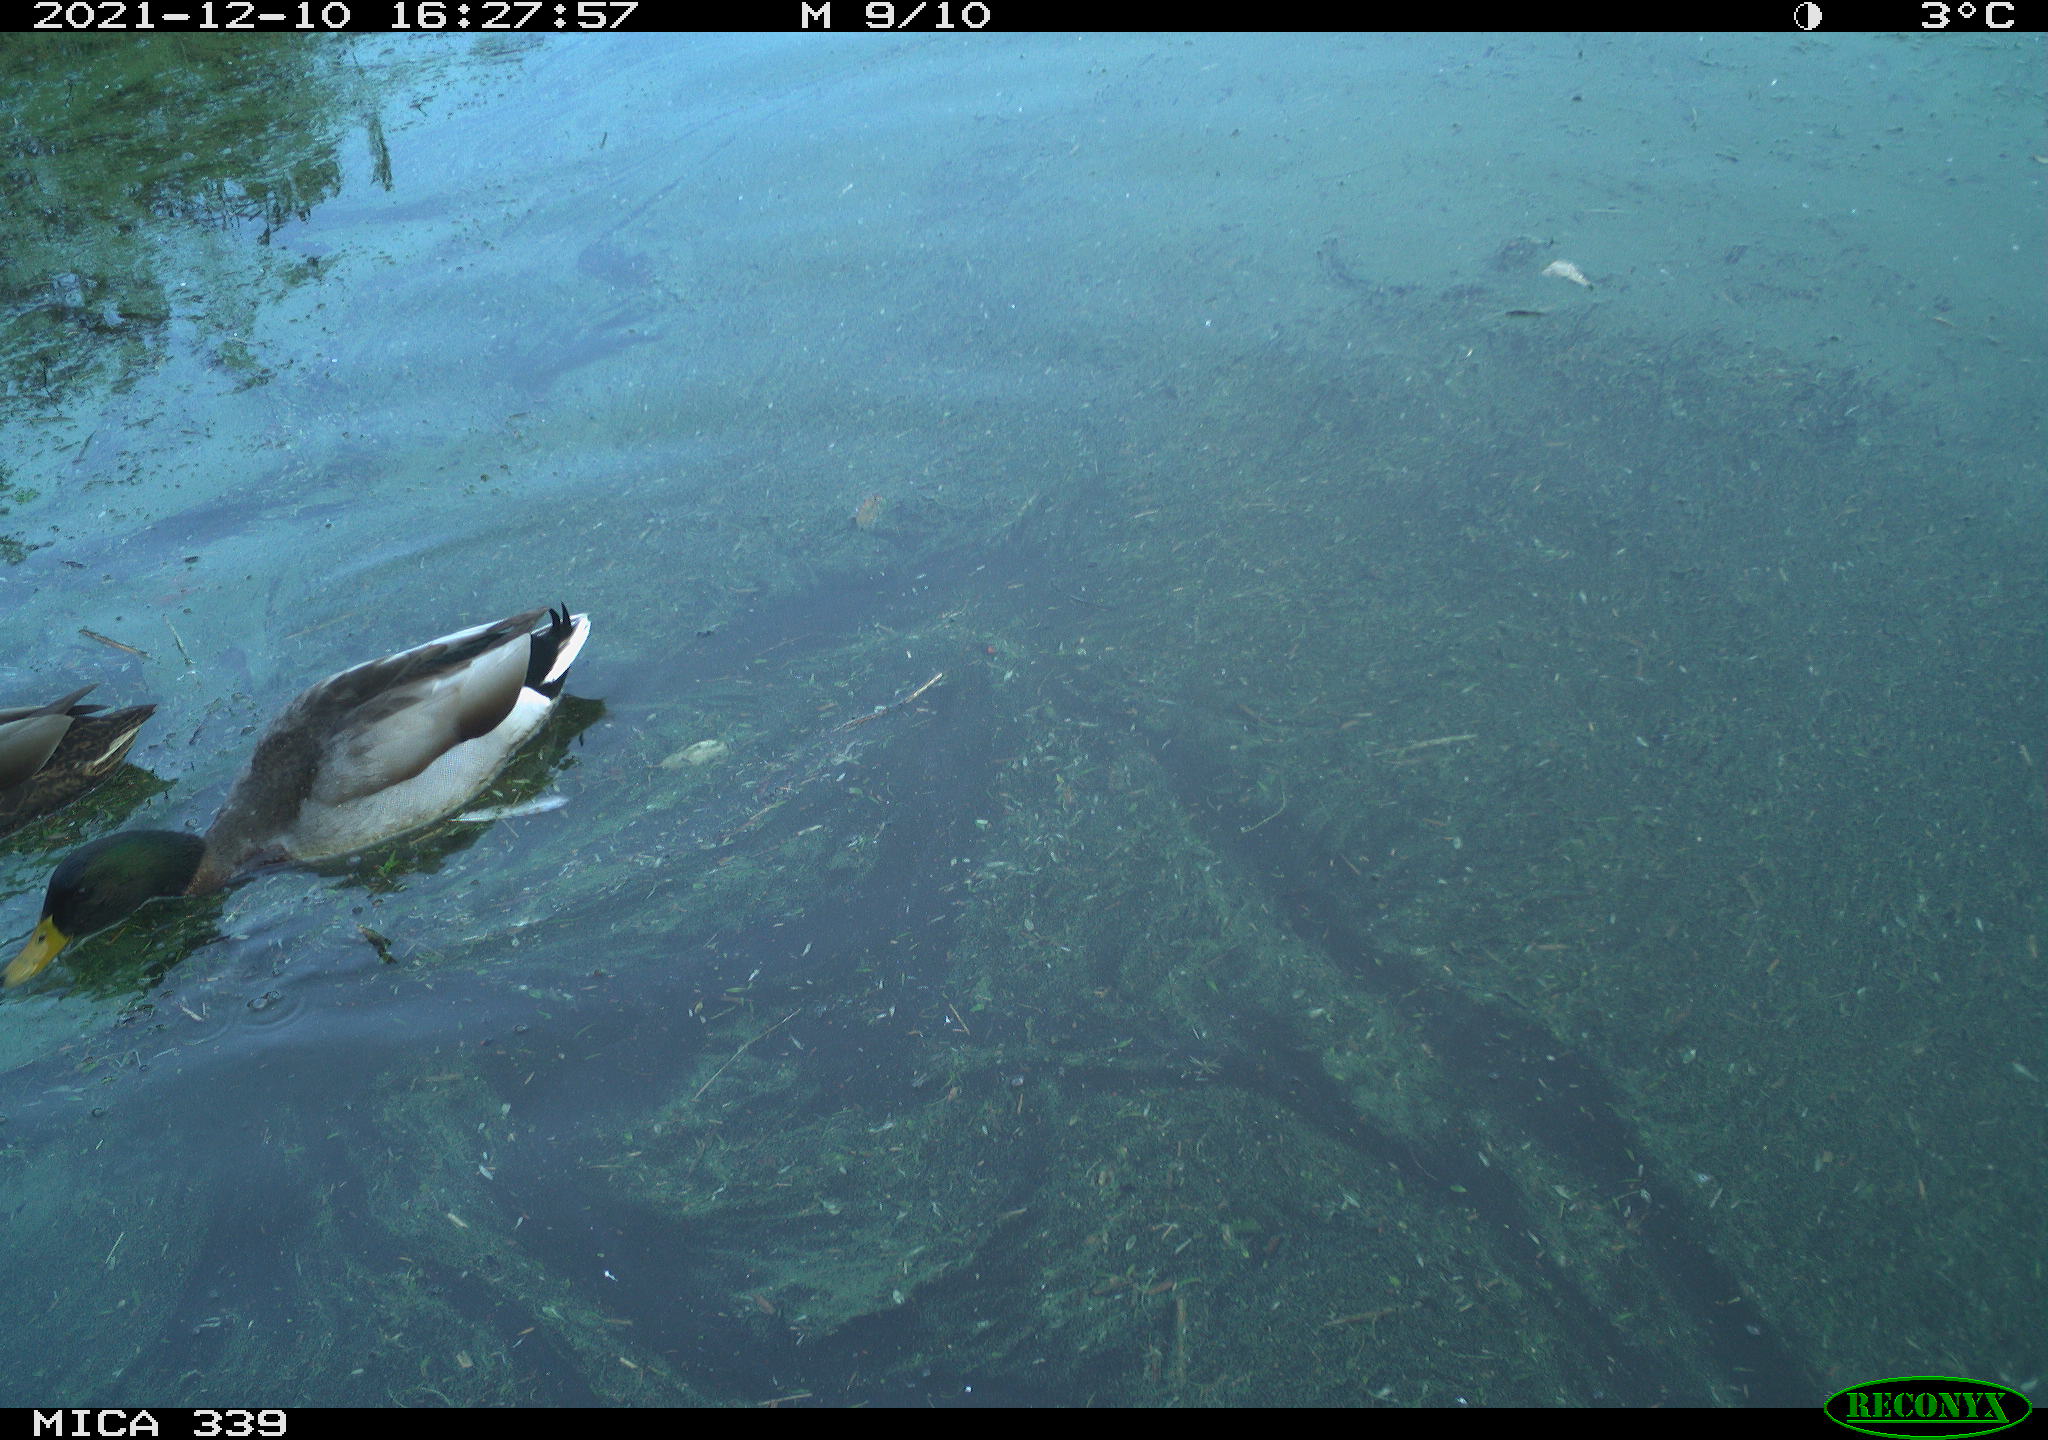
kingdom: Animalia
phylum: Chordata
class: Aves
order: Anseriformes
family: Anatidae
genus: Anas
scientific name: Anas platyrhynchos
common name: Mallard
